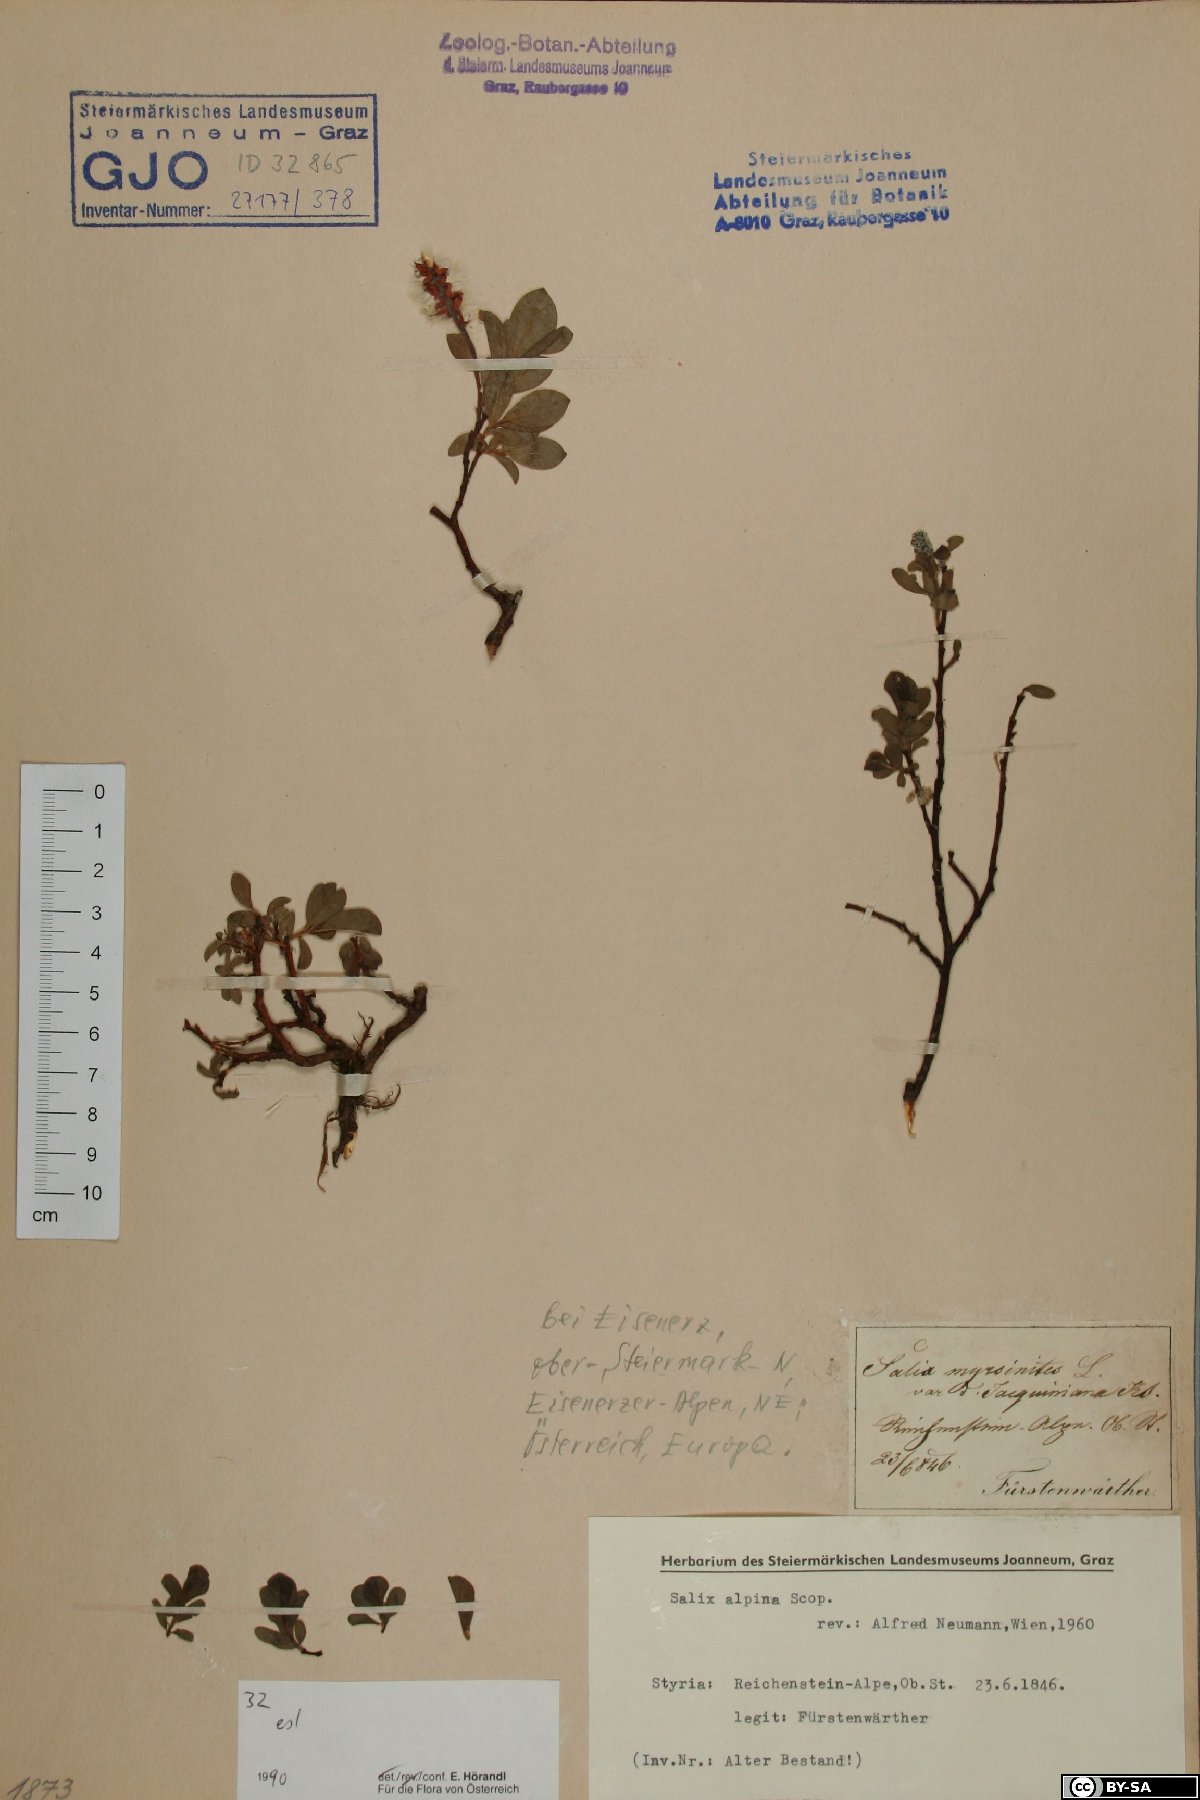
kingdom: Plantae
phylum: Tracheophyta
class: Magnoliopsida
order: Malpighiales
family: Salicaceae
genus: Salix
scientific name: Salix alpina
